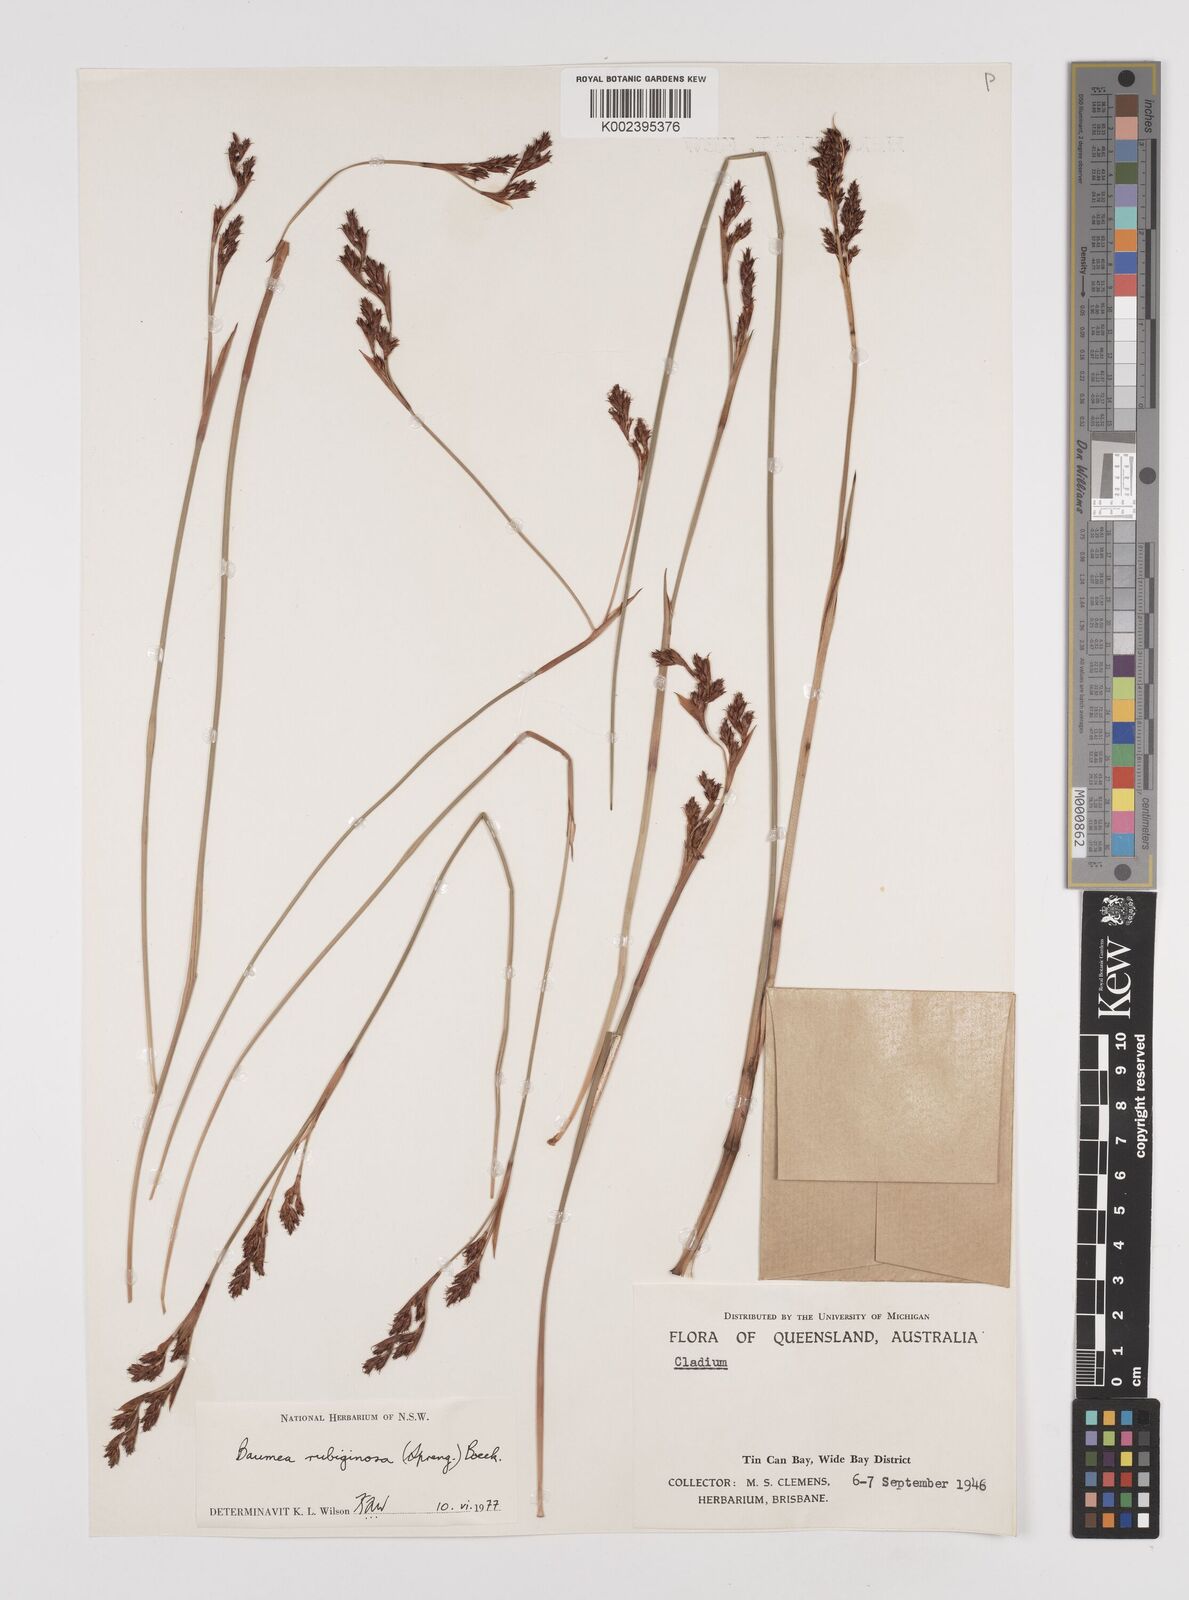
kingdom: Plantae
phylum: Tracheophyta
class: Liliopsida
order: Poales
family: Cyperaceae
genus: Machaerina
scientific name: Machaerina rubiginosa
